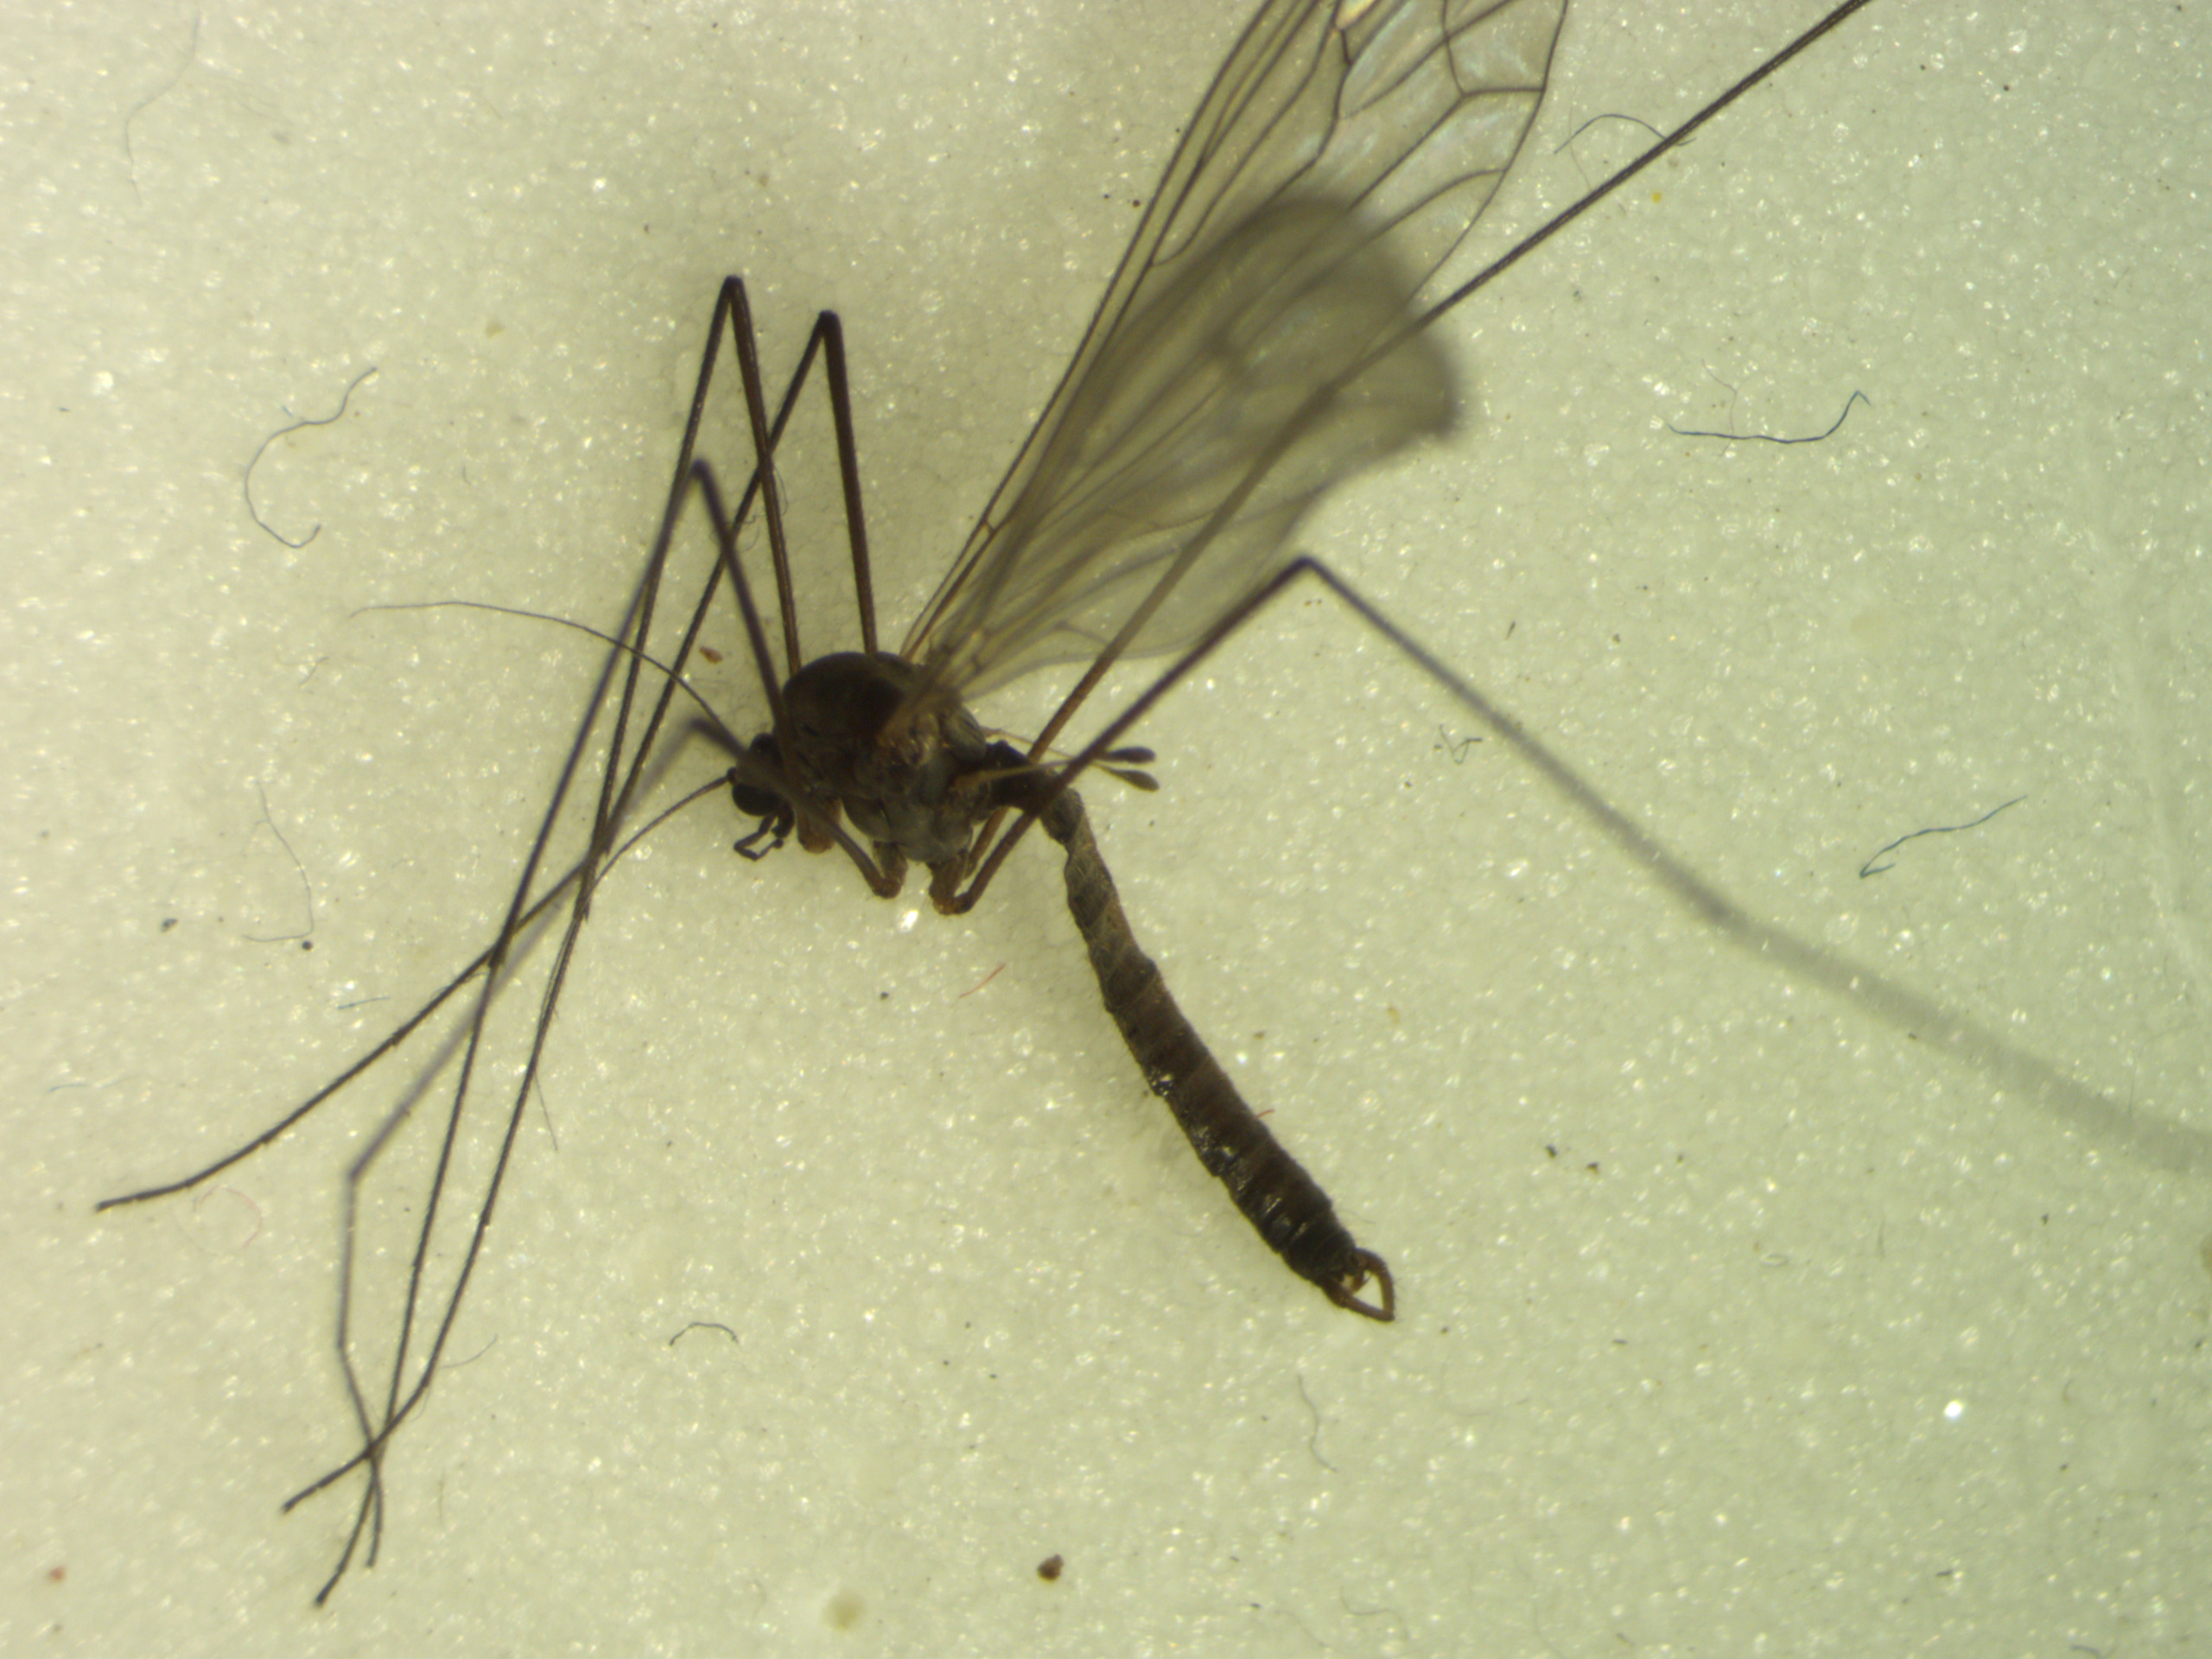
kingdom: Animalia
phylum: Arthropoda
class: Insecta
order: Diptera
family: Trichoceridae
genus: Trichocera
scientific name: Trichocera saltator
